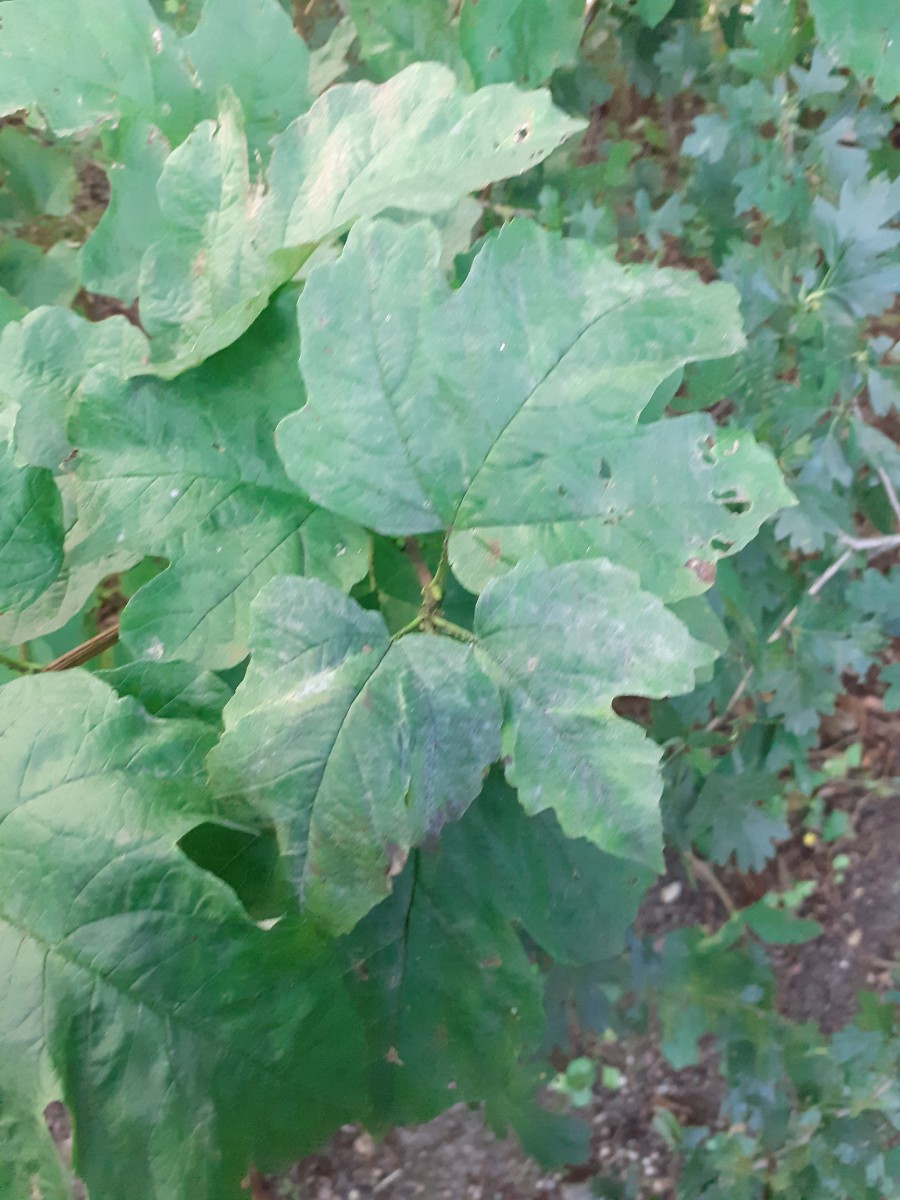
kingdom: Fungi
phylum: Ascomycota
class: Leotiomycetes
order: Helotiales
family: Erysiphaceae
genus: Erysiphe
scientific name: Erysiphe viburni
